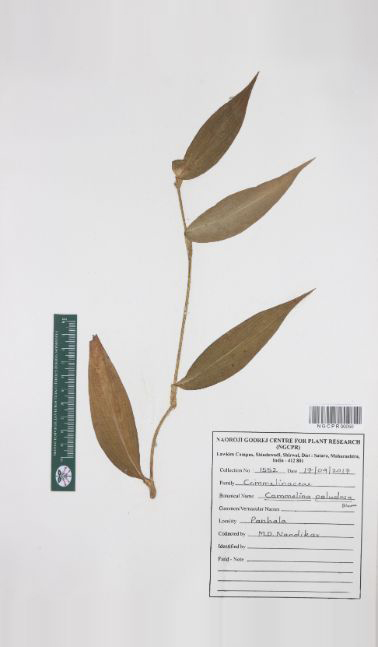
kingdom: Plantae
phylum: Tracheophyta
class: Liliopsida
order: Commelinales
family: Commelinaceae
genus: Commelina
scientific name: Commelina paludosa
